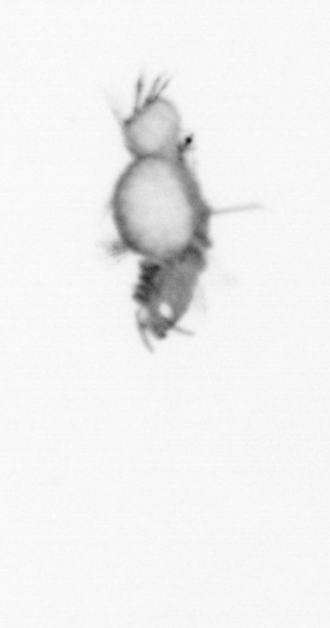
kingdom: Animalia
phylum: Annelida
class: Polychaeta
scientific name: Polychaeta
